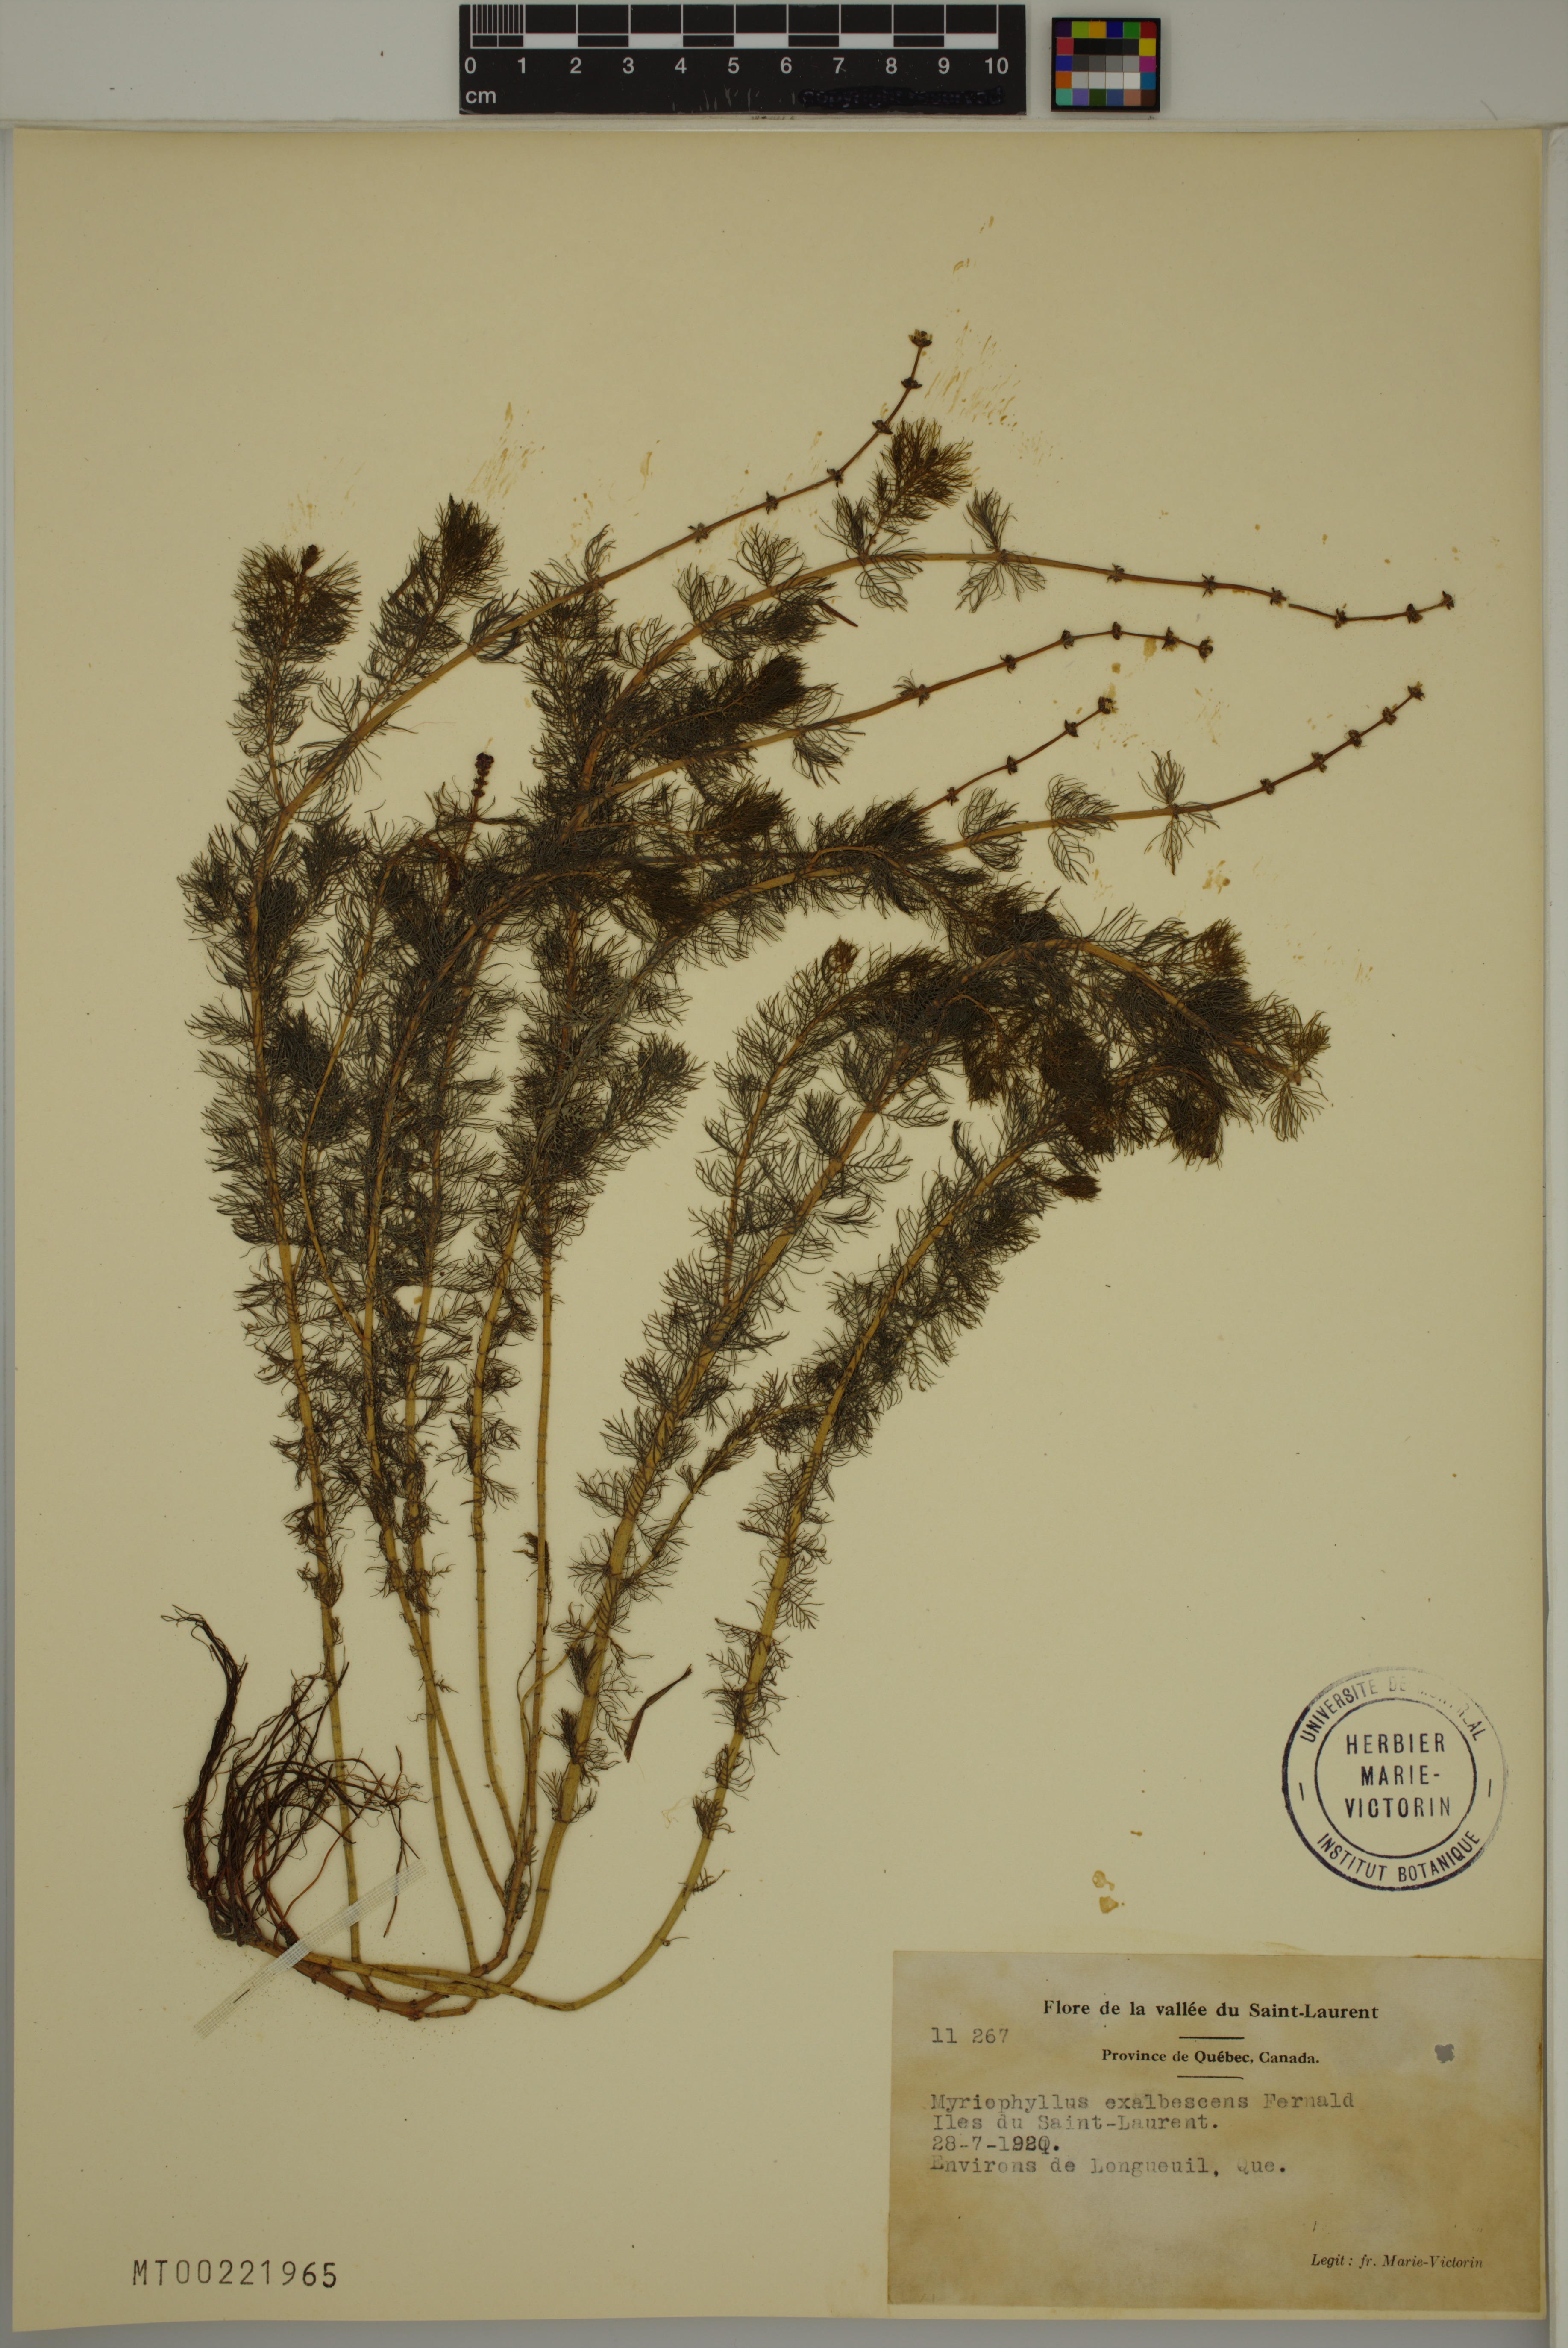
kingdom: Plantae
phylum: Tracheophyta
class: Magnoliopsida
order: Saxifragales
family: Haloragaceae
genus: Myriophyllum
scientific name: Myriophyllum sibiricum
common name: Siberian water-milfoil
